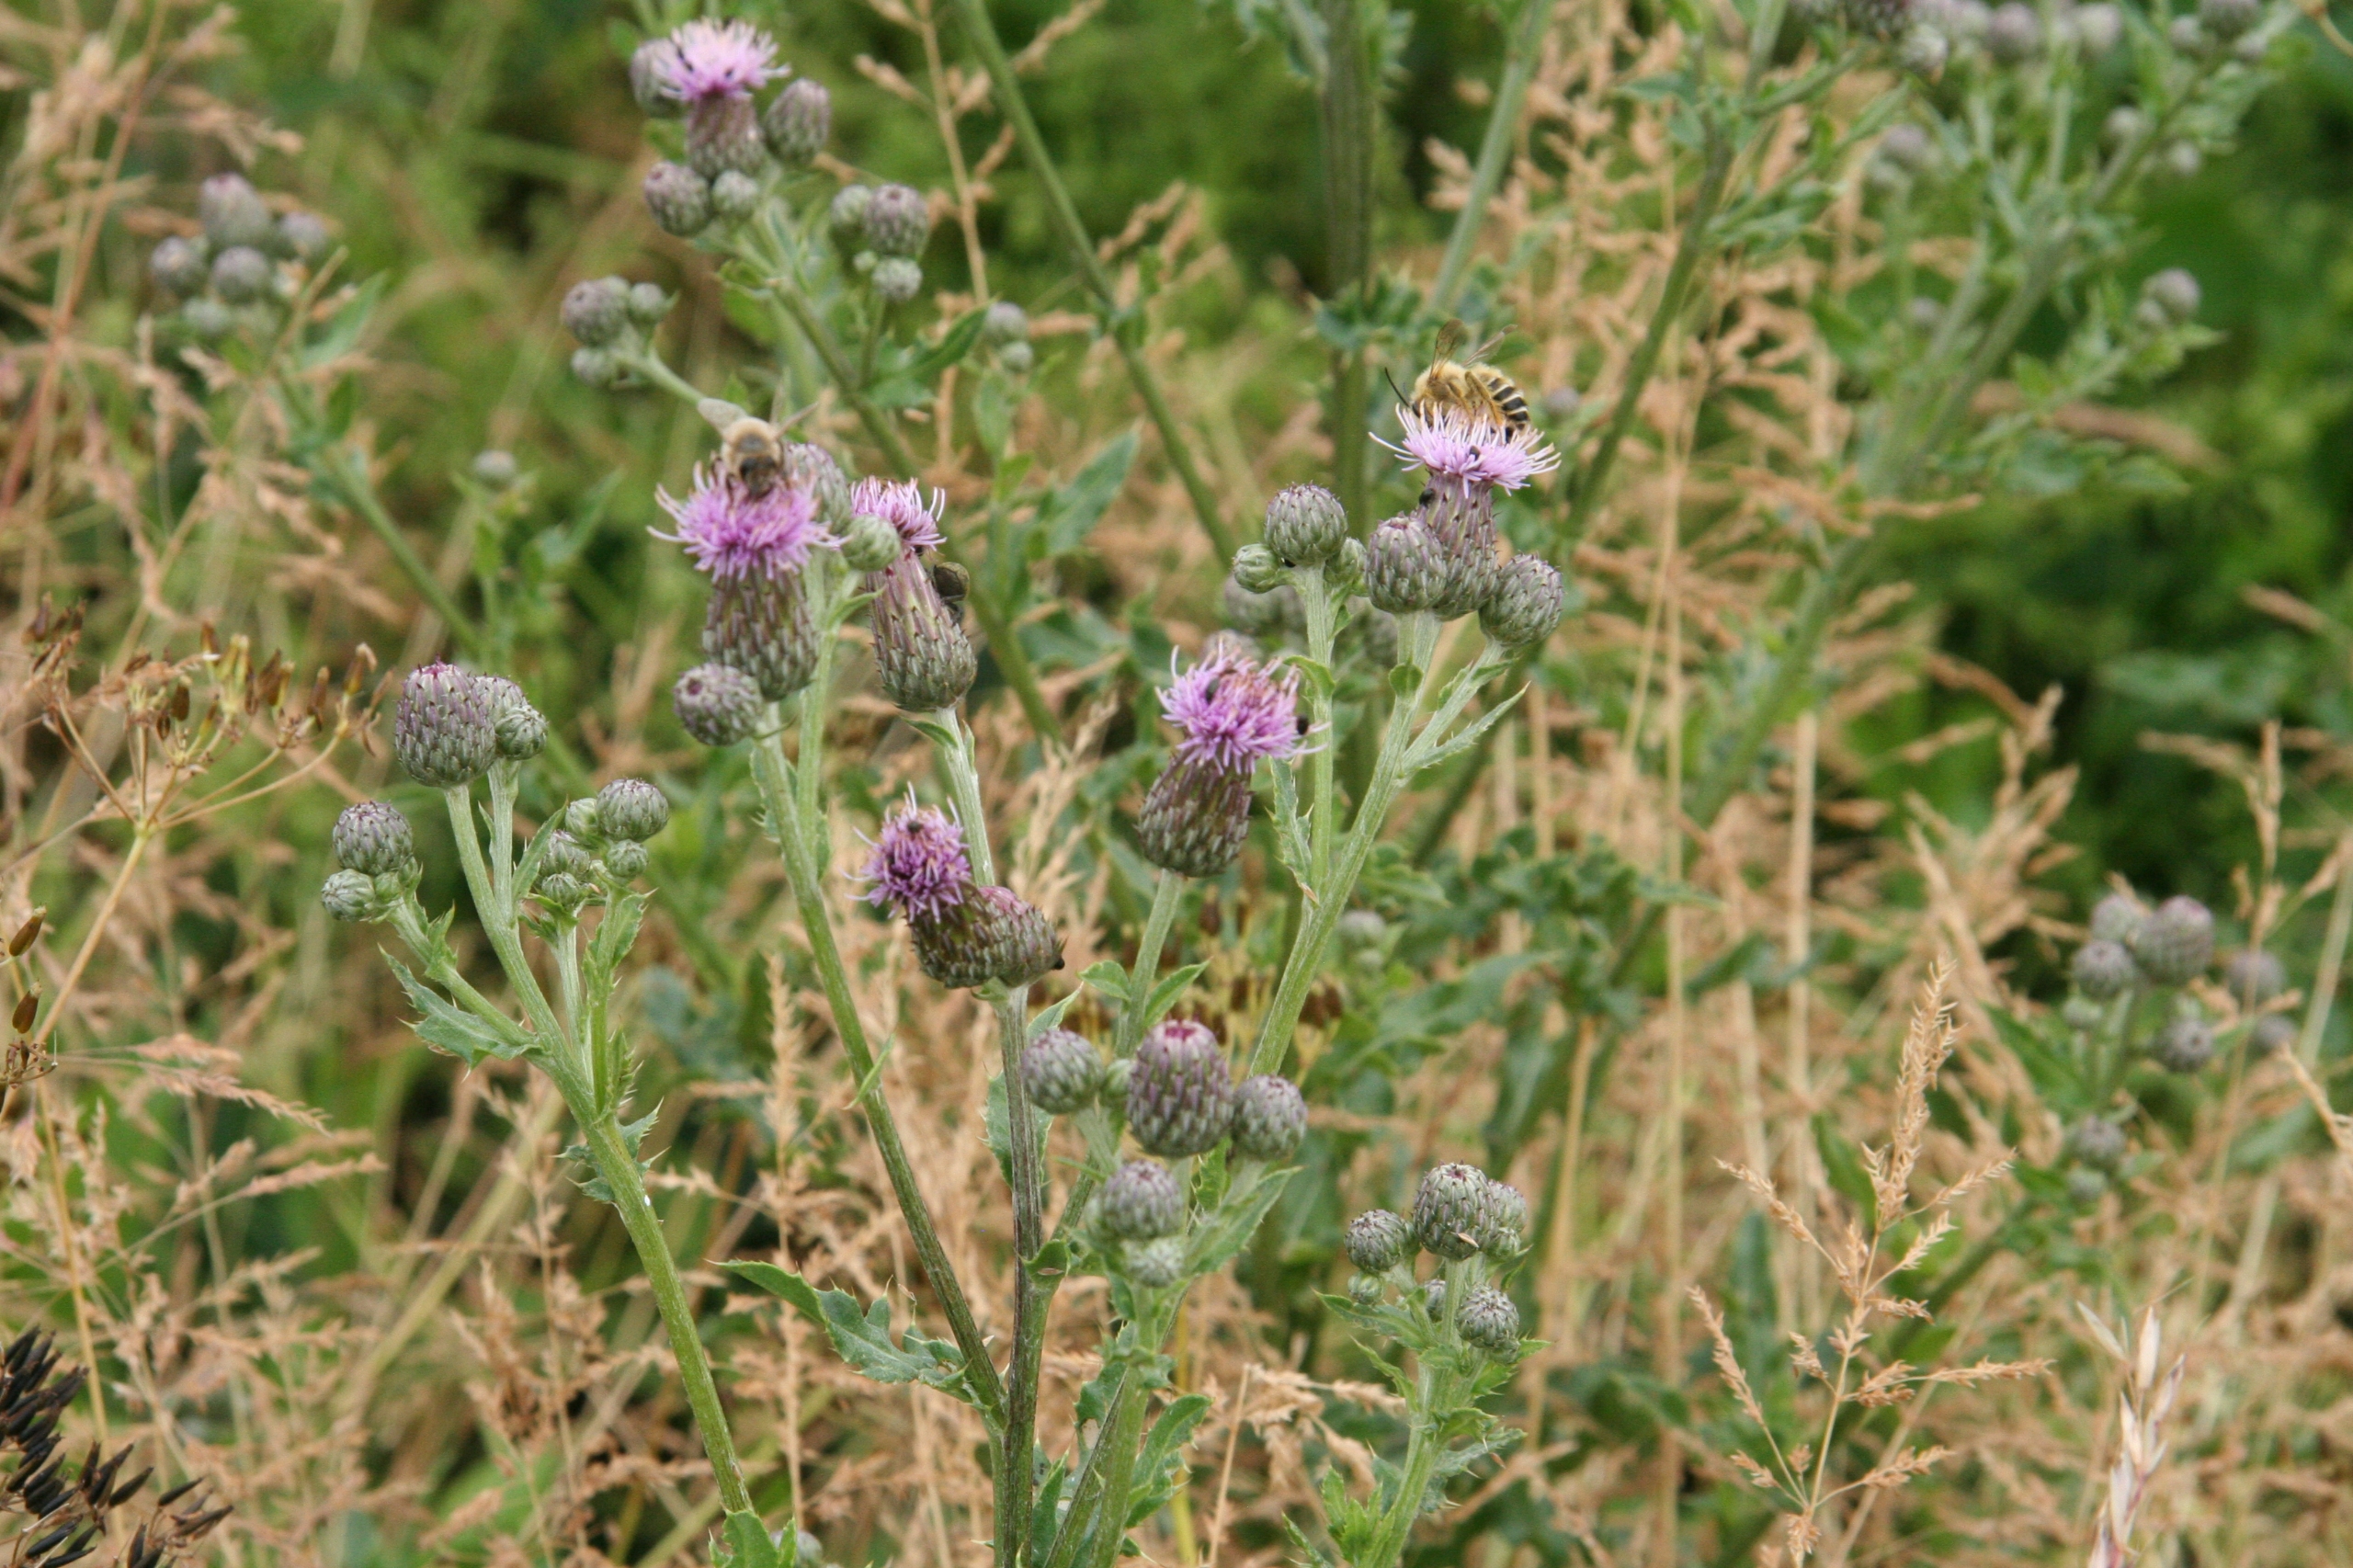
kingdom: Plantae
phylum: Tracheophyta
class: Magnoliopsida
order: Asterales
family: Asteraceae
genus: Cirsium
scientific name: Cirsium arvense
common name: Ager-tidsel
